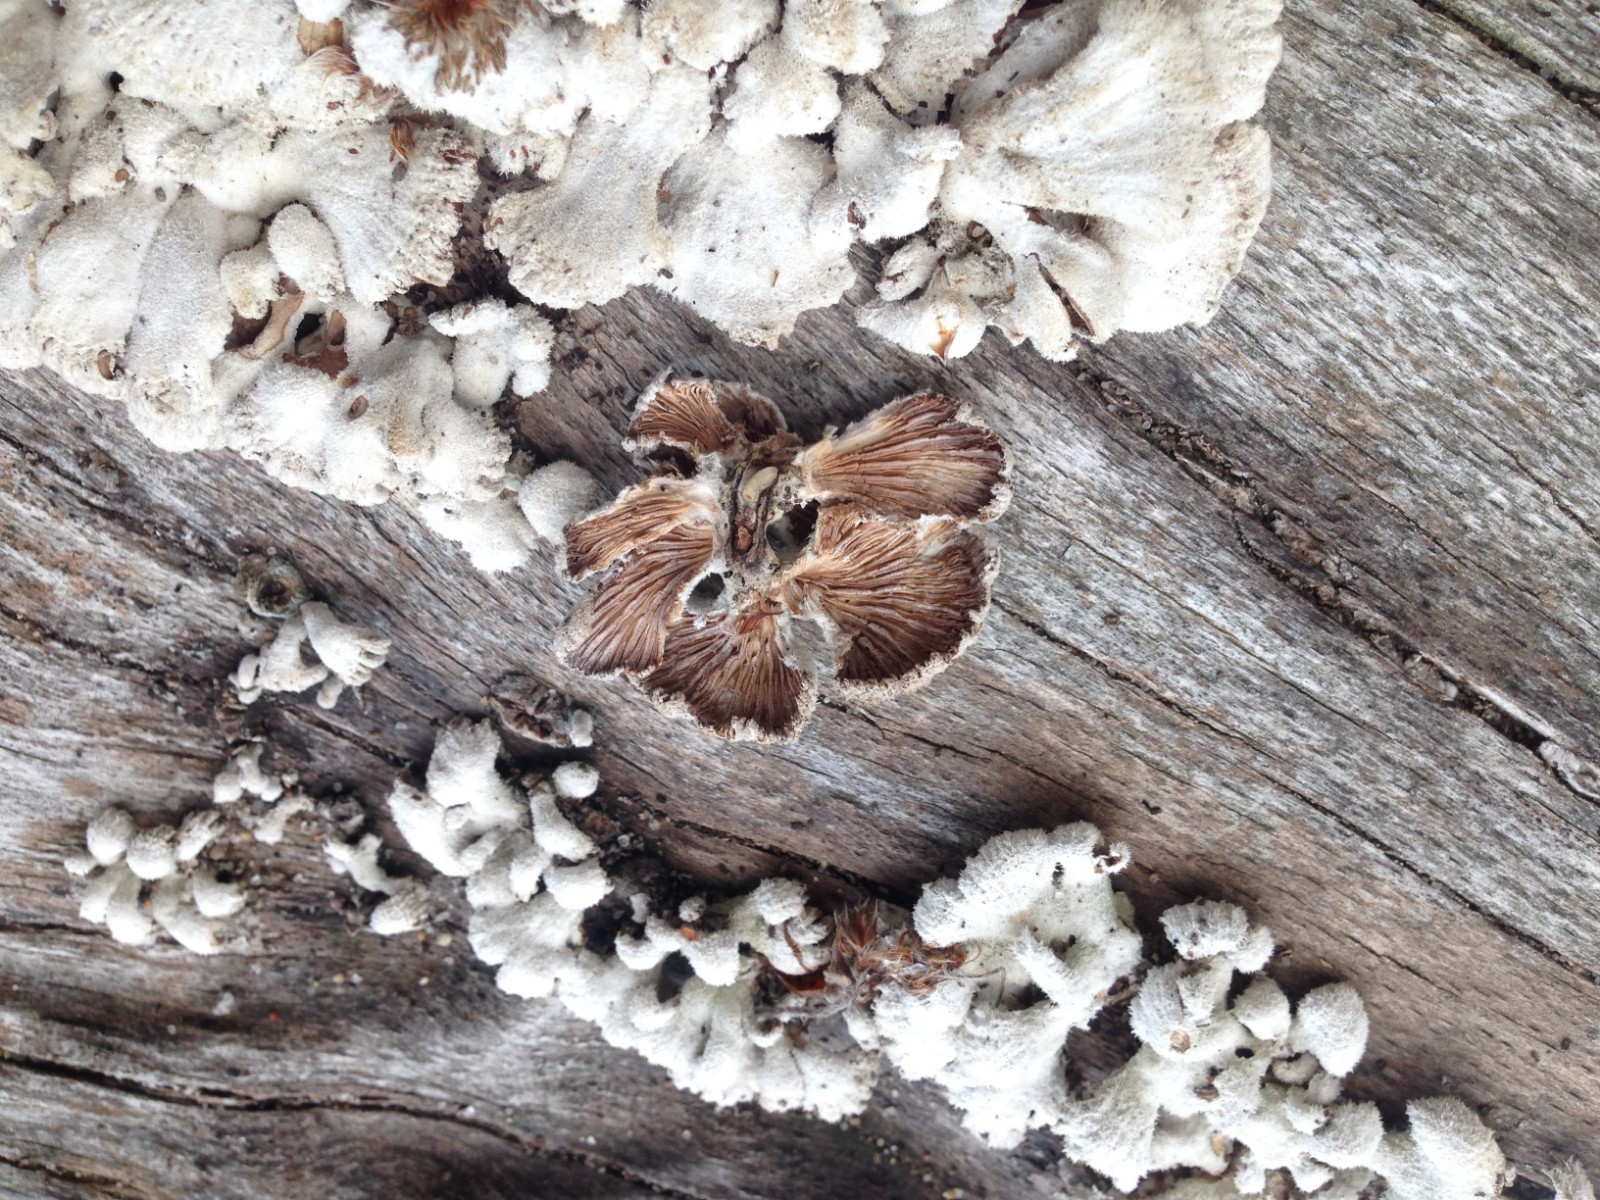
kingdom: Fungi
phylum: Basidiomycota
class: Agaricomycetes
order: Agaricales
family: Schizophyllaceae
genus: Schizophyllum
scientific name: Schizophyllum commune
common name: kløvblad
